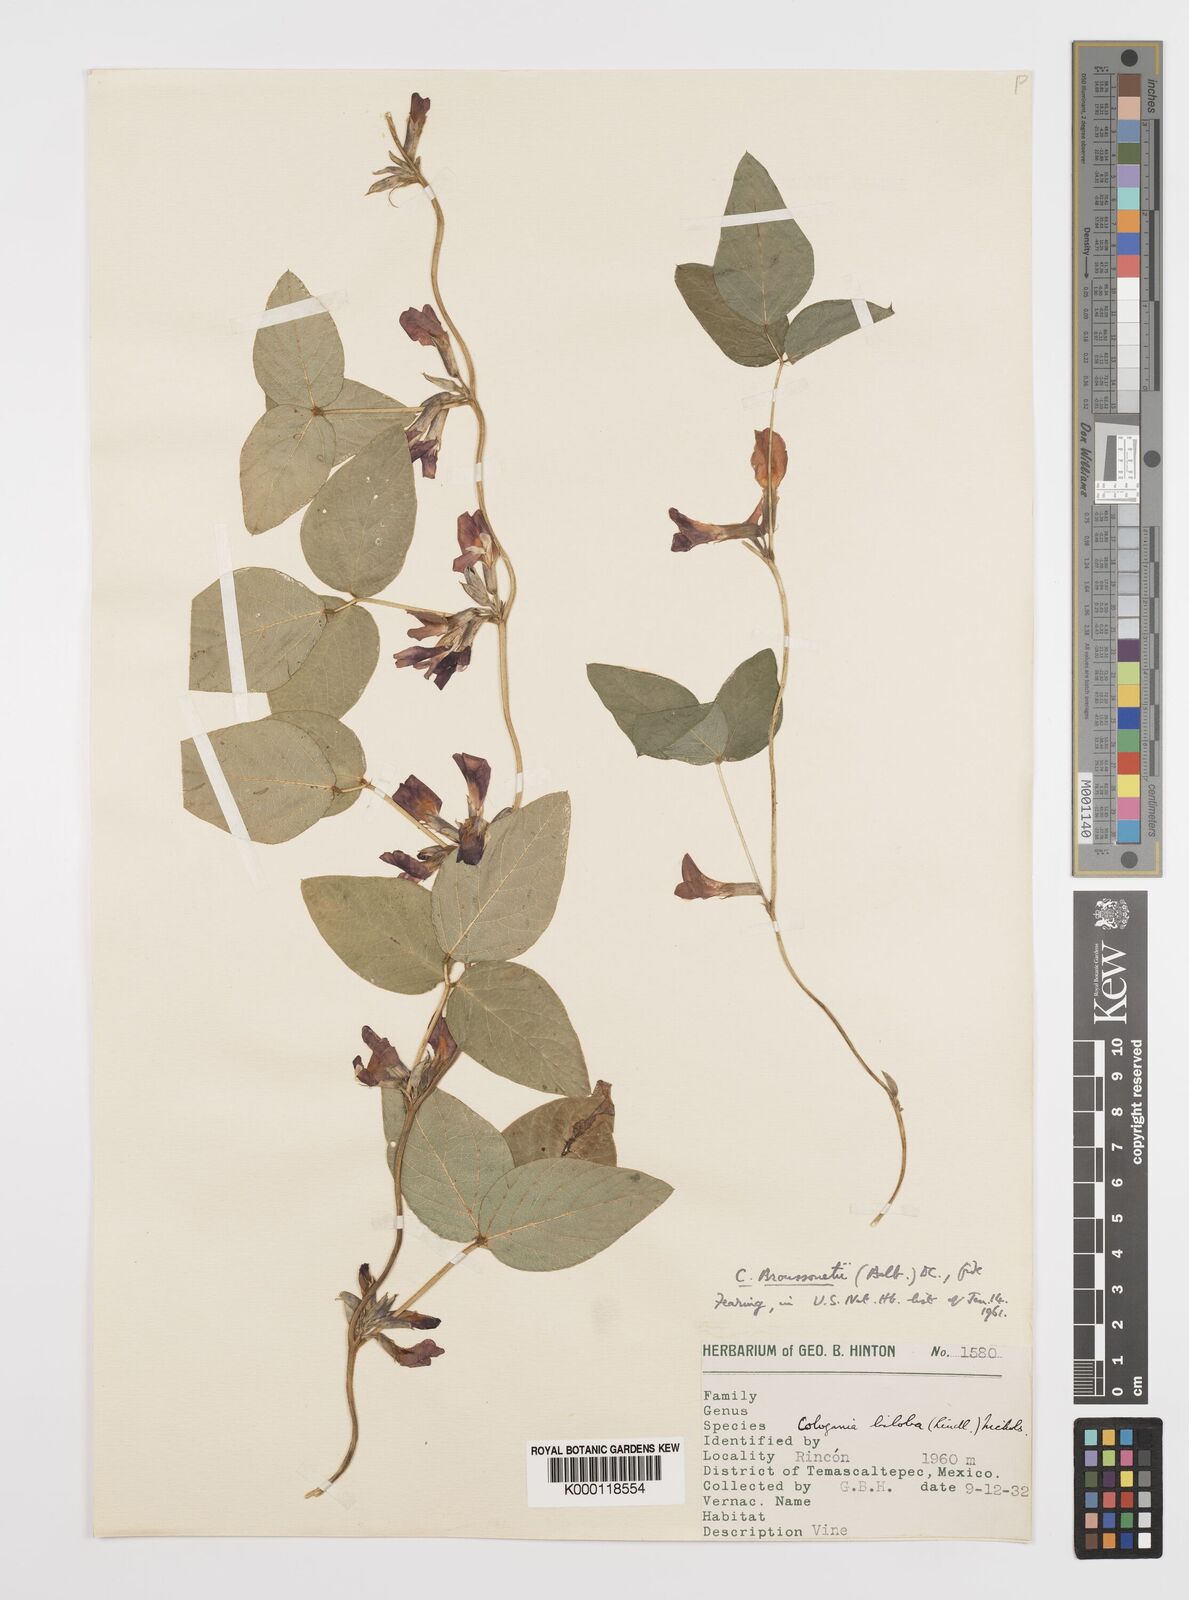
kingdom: Plantae
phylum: Tracheophyta
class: Magnoliopsida
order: Fabales
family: Fabaceae
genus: Cologania
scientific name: Cologania broussonetii
